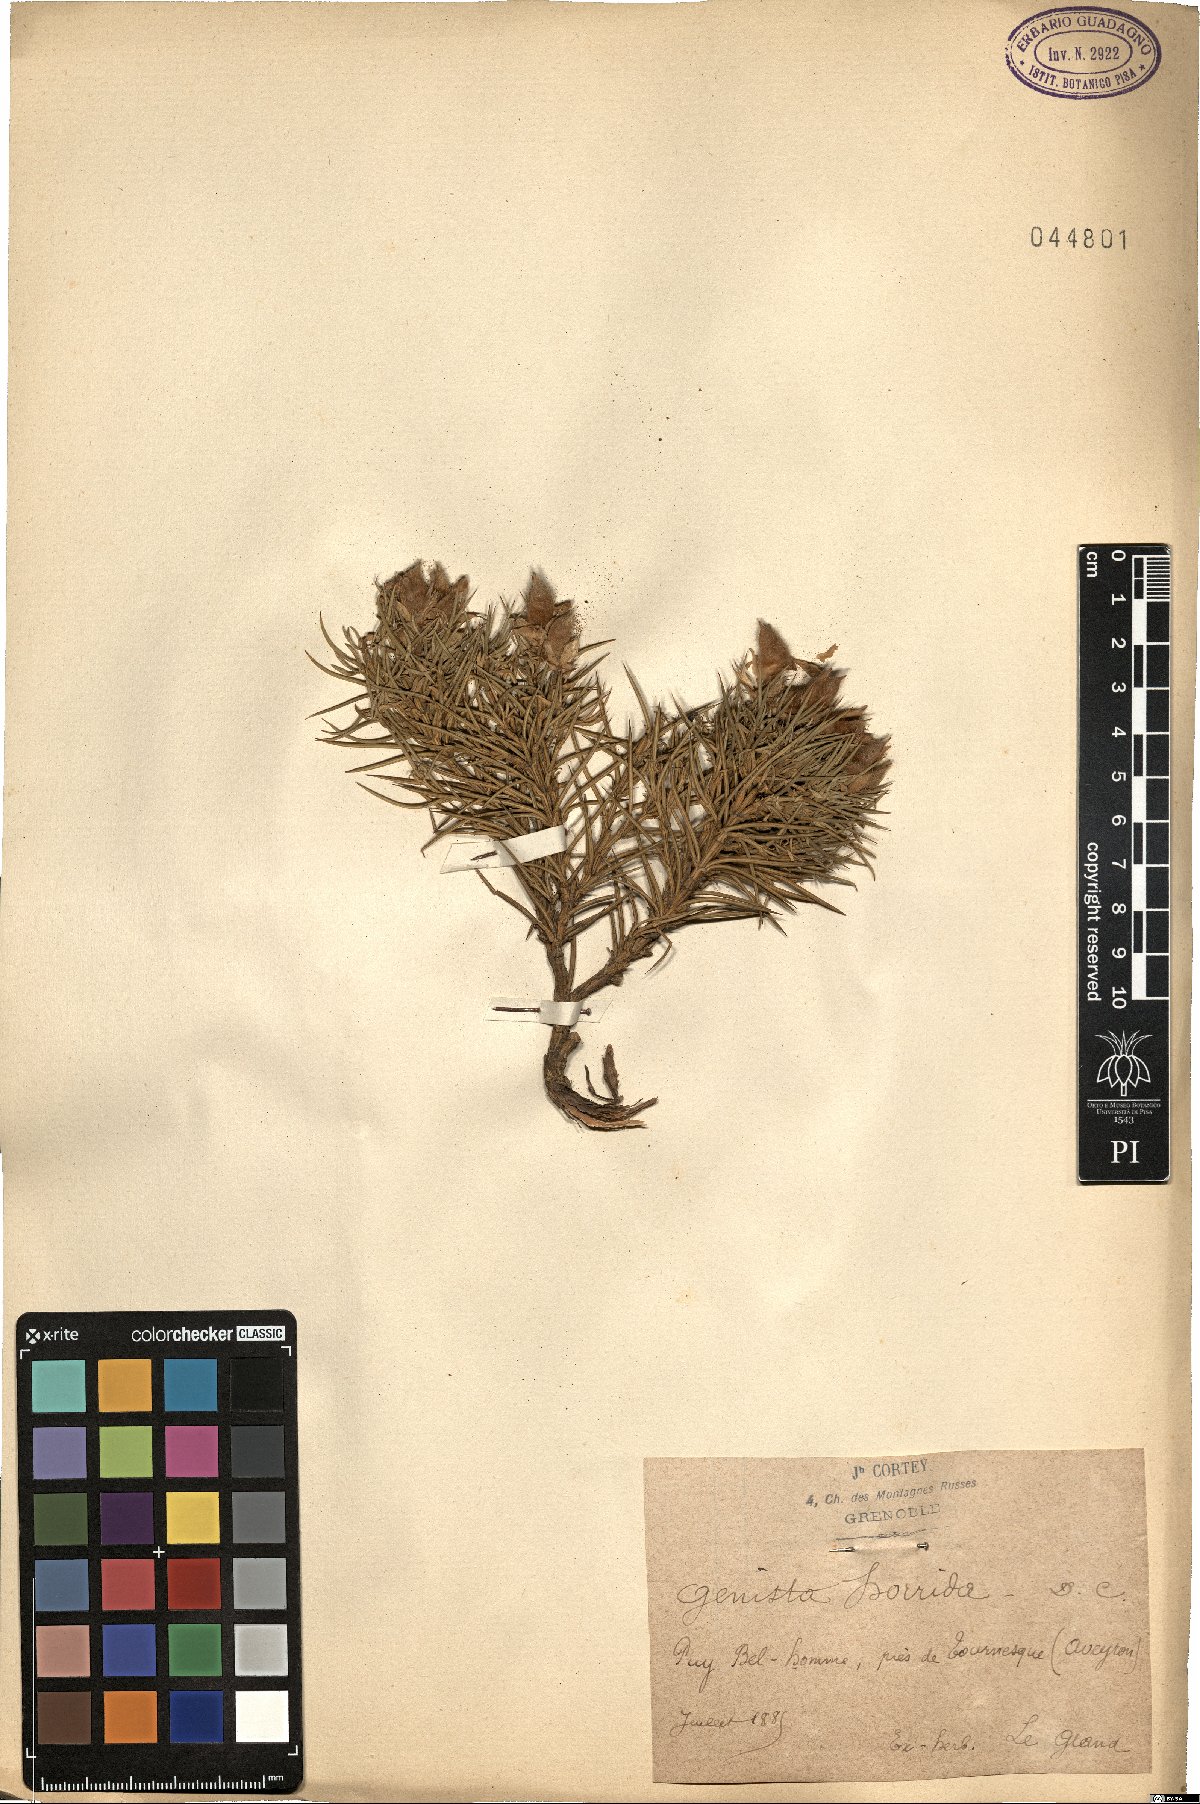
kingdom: Plantae
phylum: Tracheophyta
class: Magnoliopsida
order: Fabales
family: Fabaceae
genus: Echinospartum
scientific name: Echinospartum horridum
